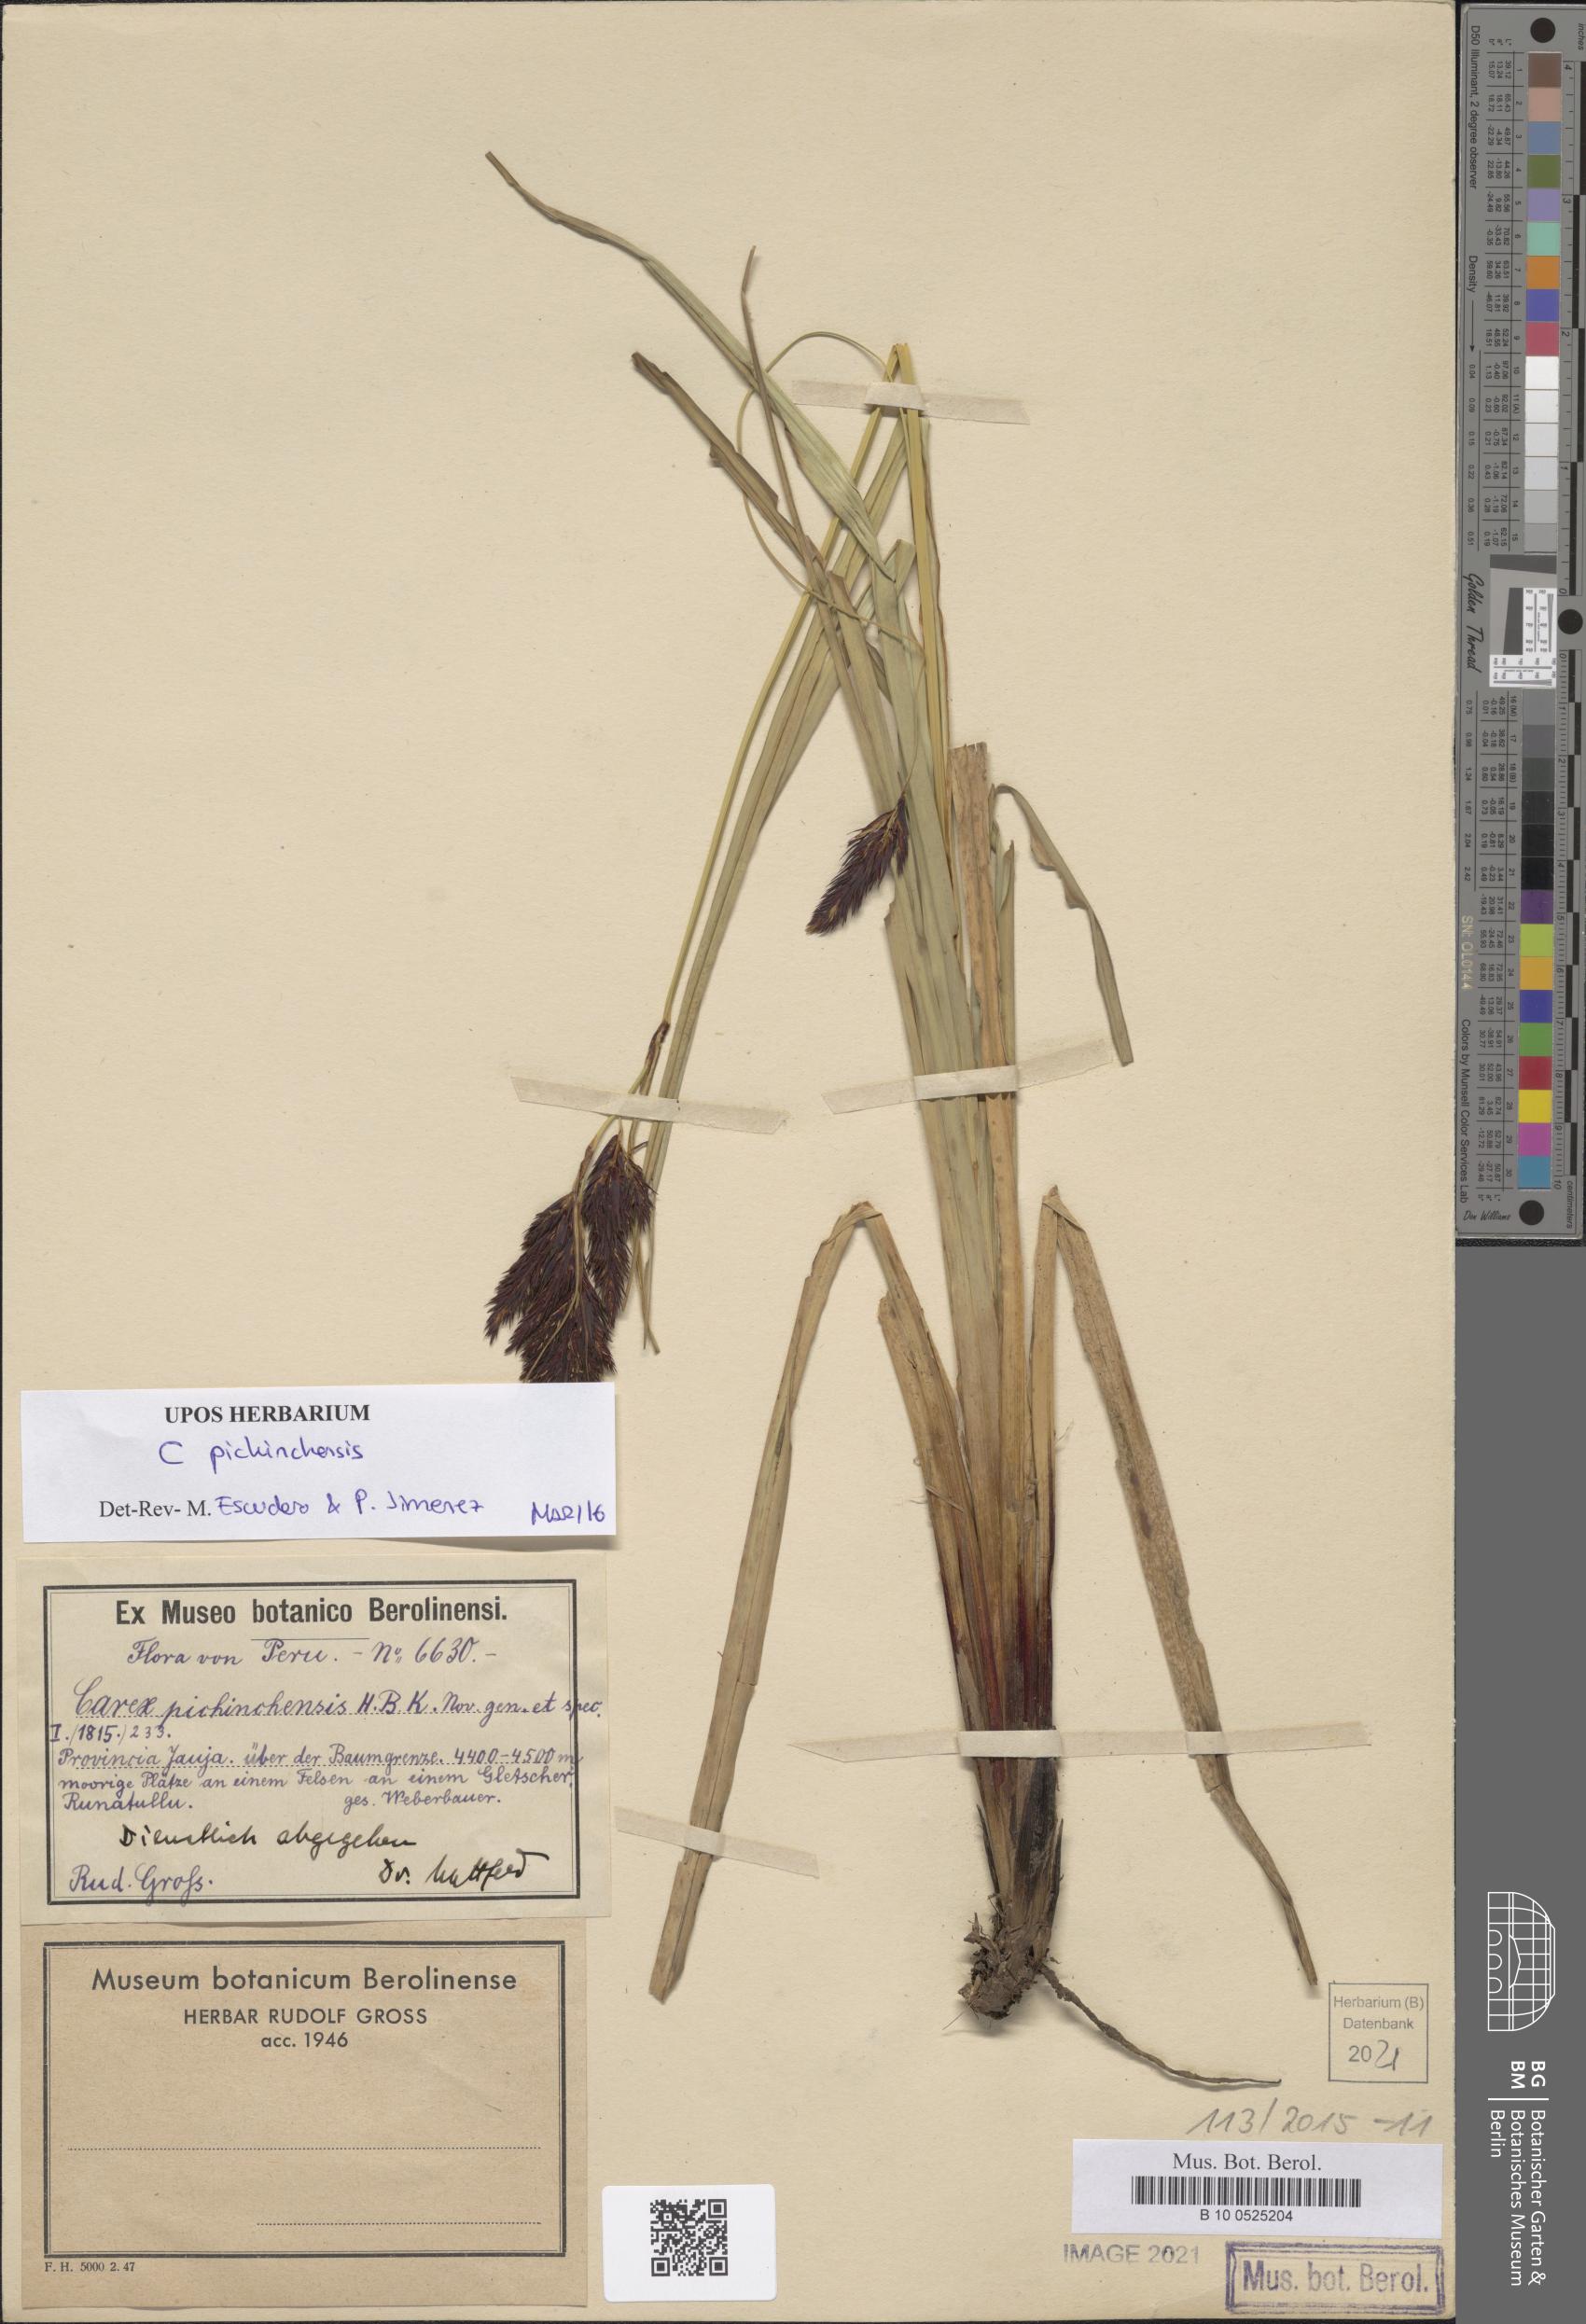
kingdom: Plantae
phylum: Tracheophyta
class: Liliopsida
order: Poales
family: Cyperaceae
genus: Carex
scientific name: Carex pichinchensis
